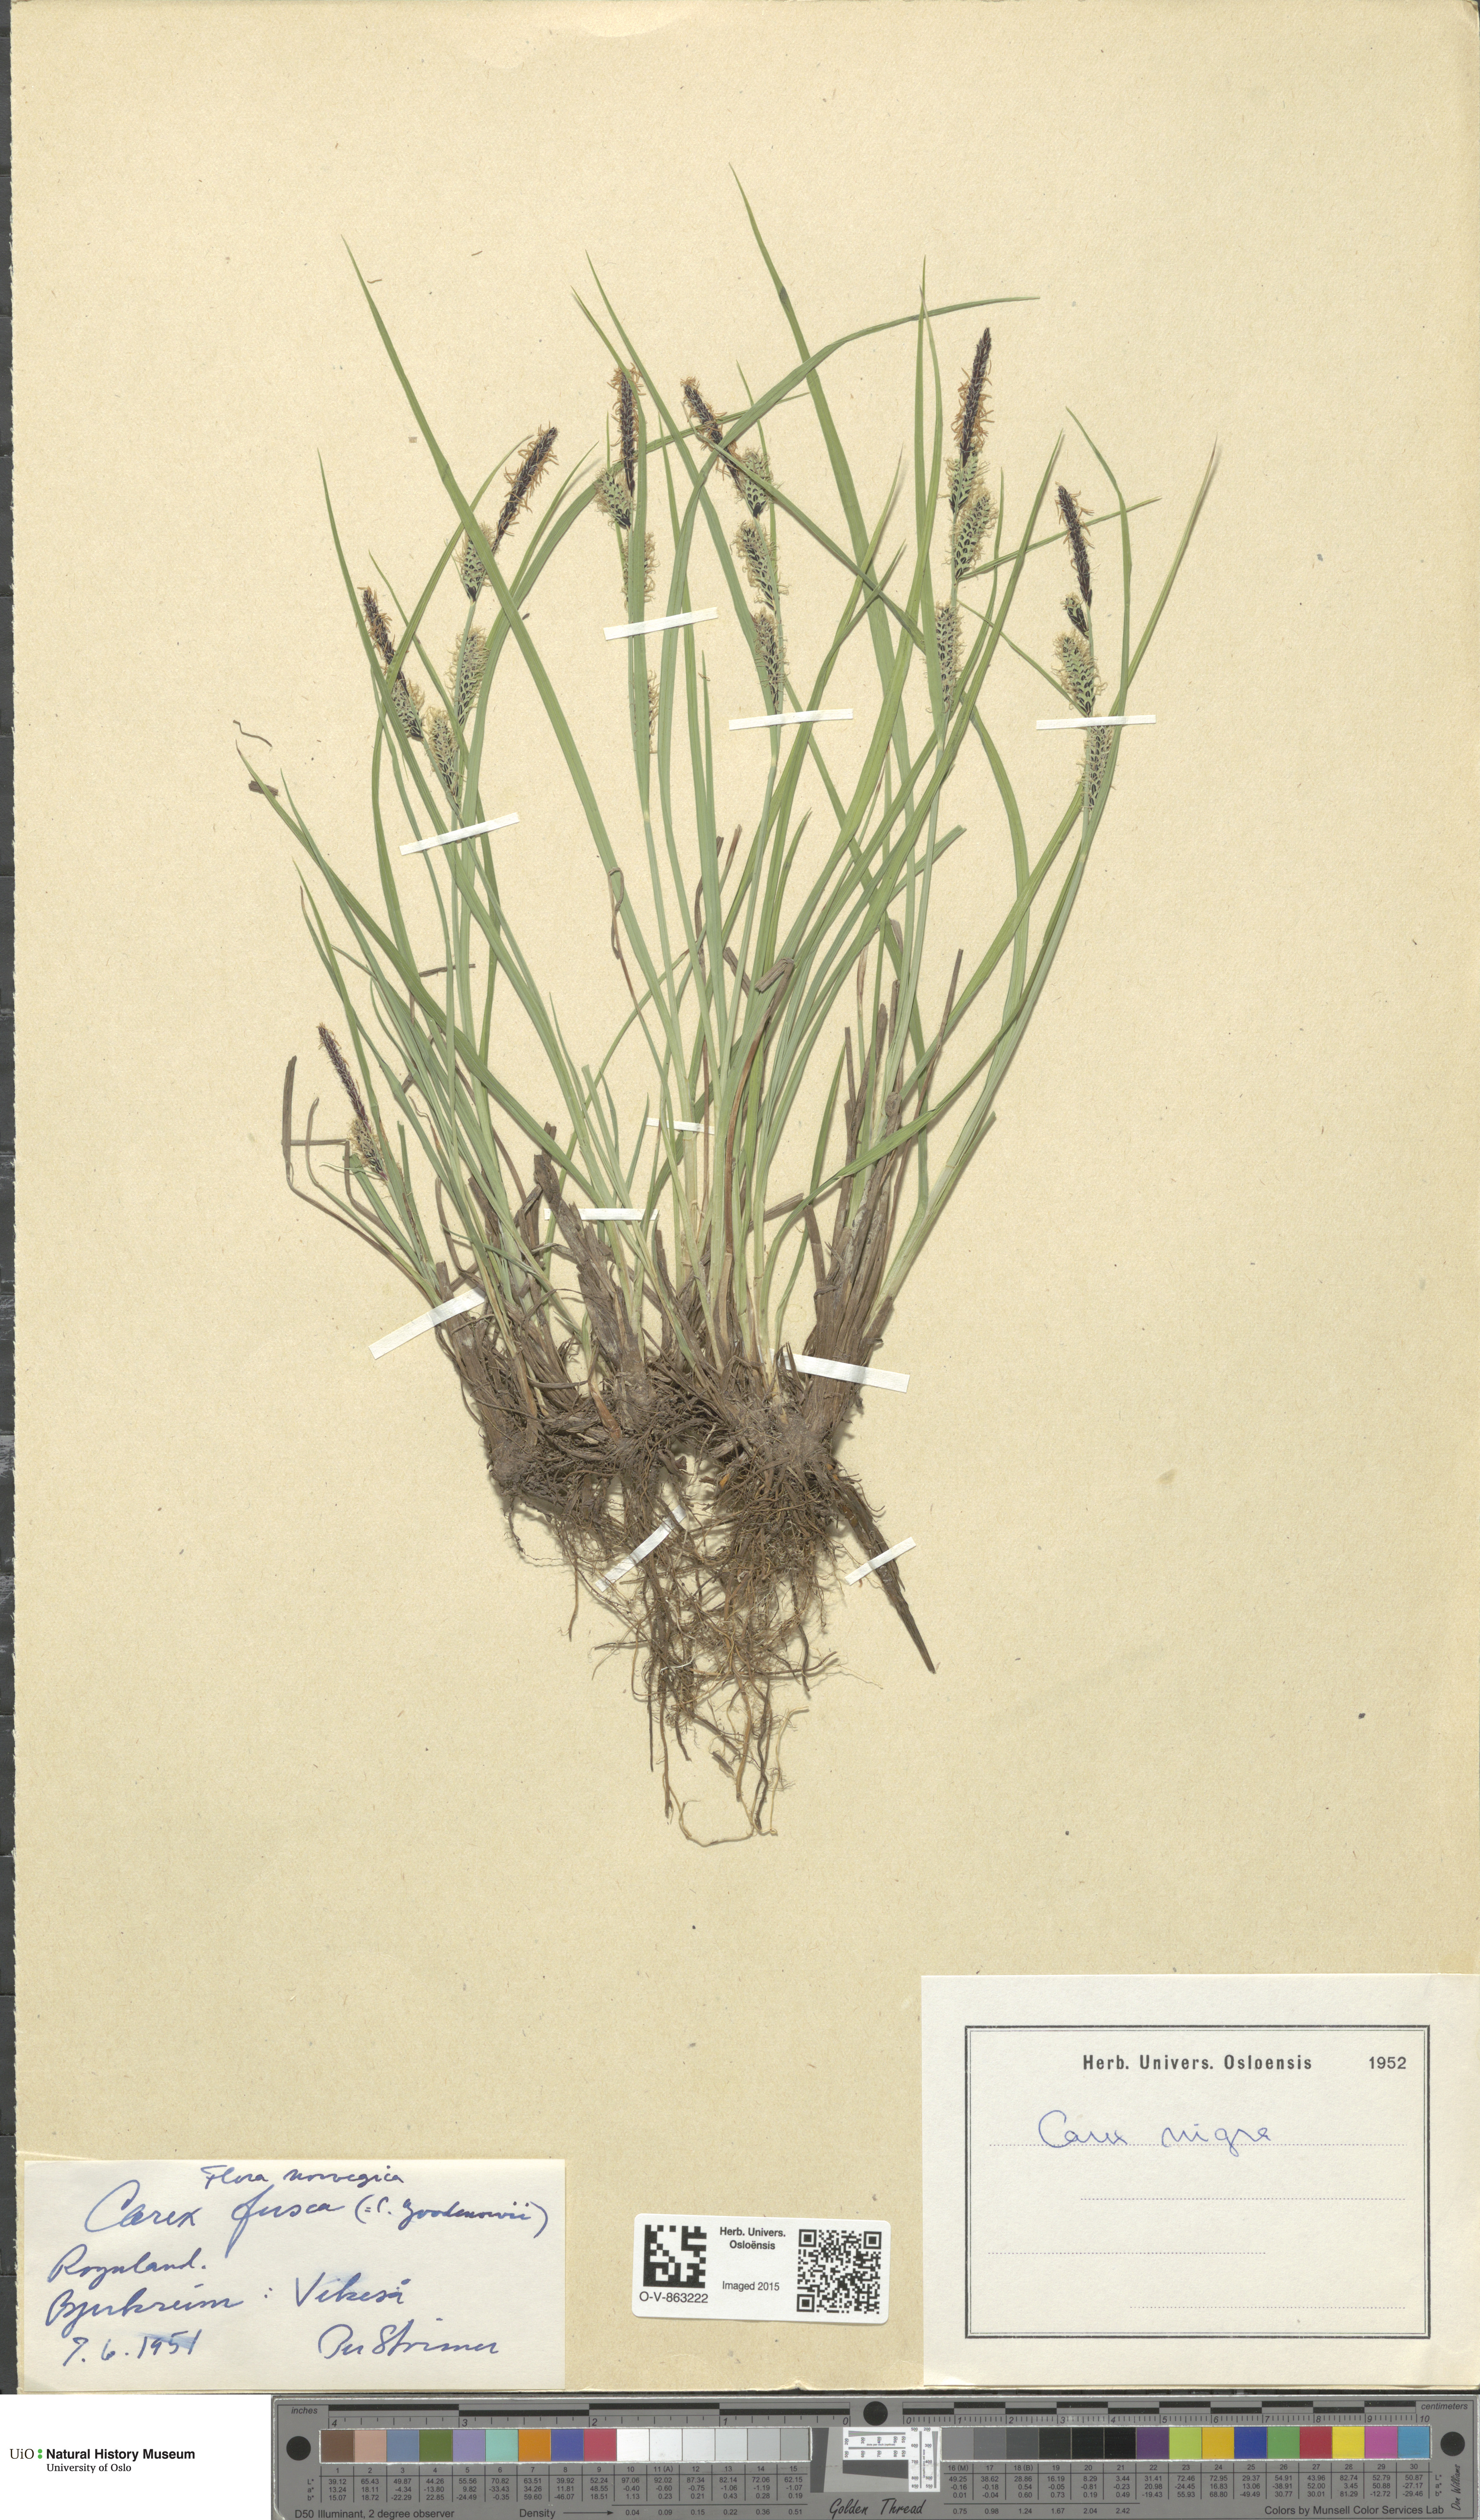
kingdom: Plantae
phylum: Tracheophyta
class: Liliopsida
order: Poales
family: Cyperaceae
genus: Carex
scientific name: Carex nigra
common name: Common sedge
